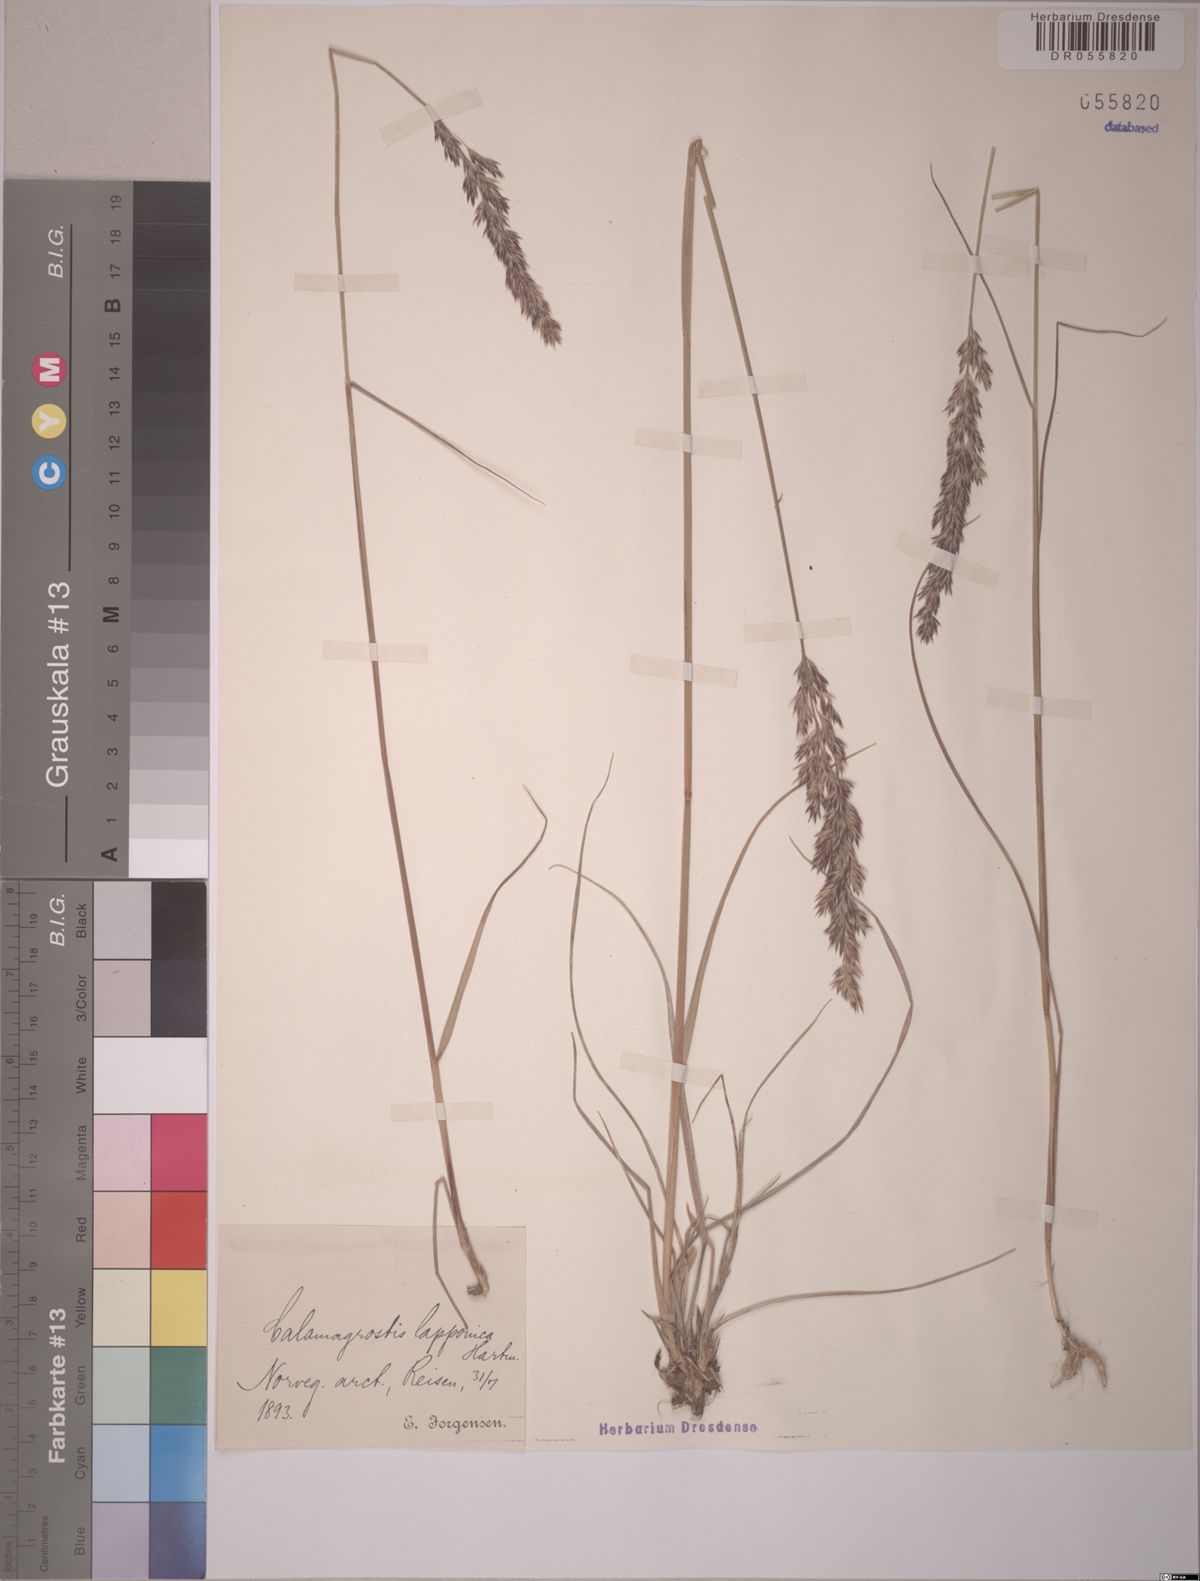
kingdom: Plantae
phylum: Tracheophyta
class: Liliopsida
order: Poales
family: Poaceae
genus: Calamagrostis
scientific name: Calamagrostis lapponica
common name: Lapland reedgrass
